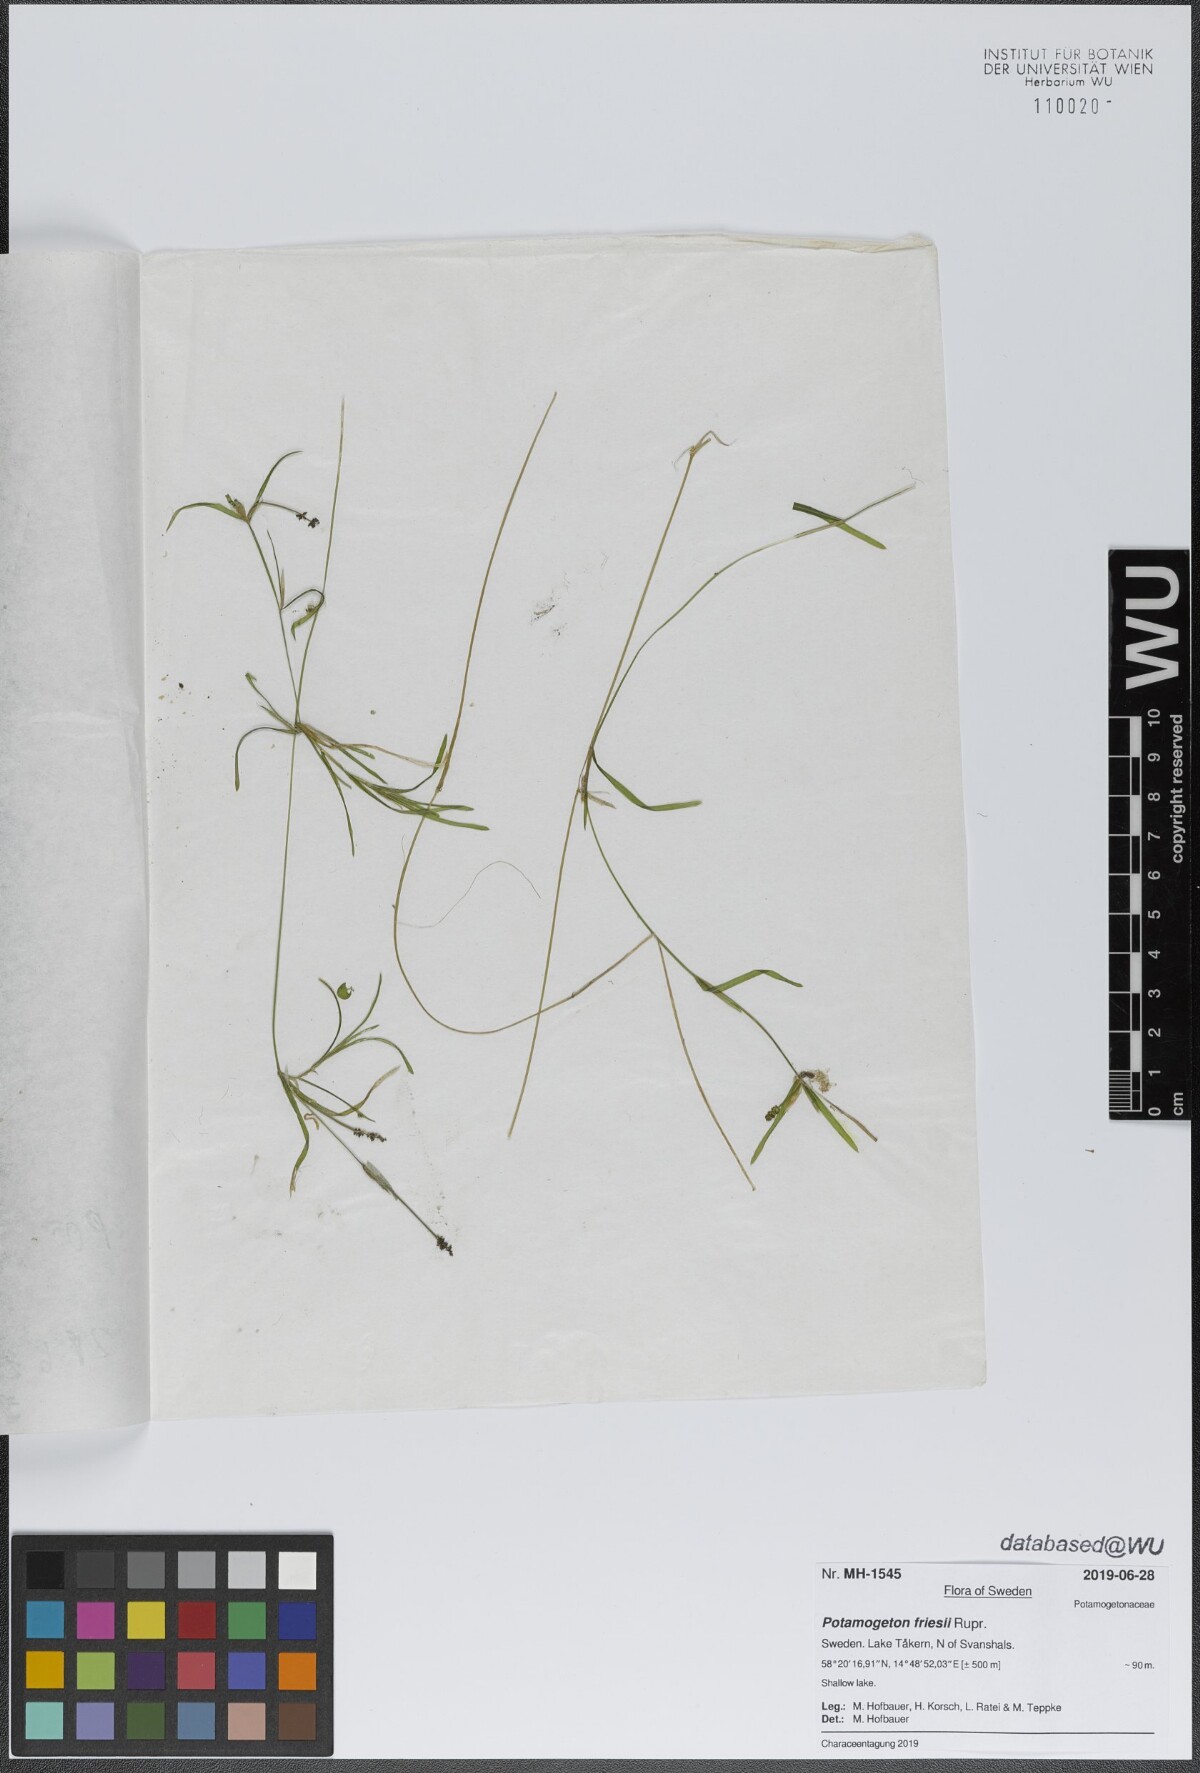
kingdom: Plantae
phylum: Tracheophyta
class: Liliopsida
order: Alismatales
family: Potamogetonaceae
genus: Potamogeton
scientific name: Potamogeton friesii
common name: Flat-stalked pondweed
